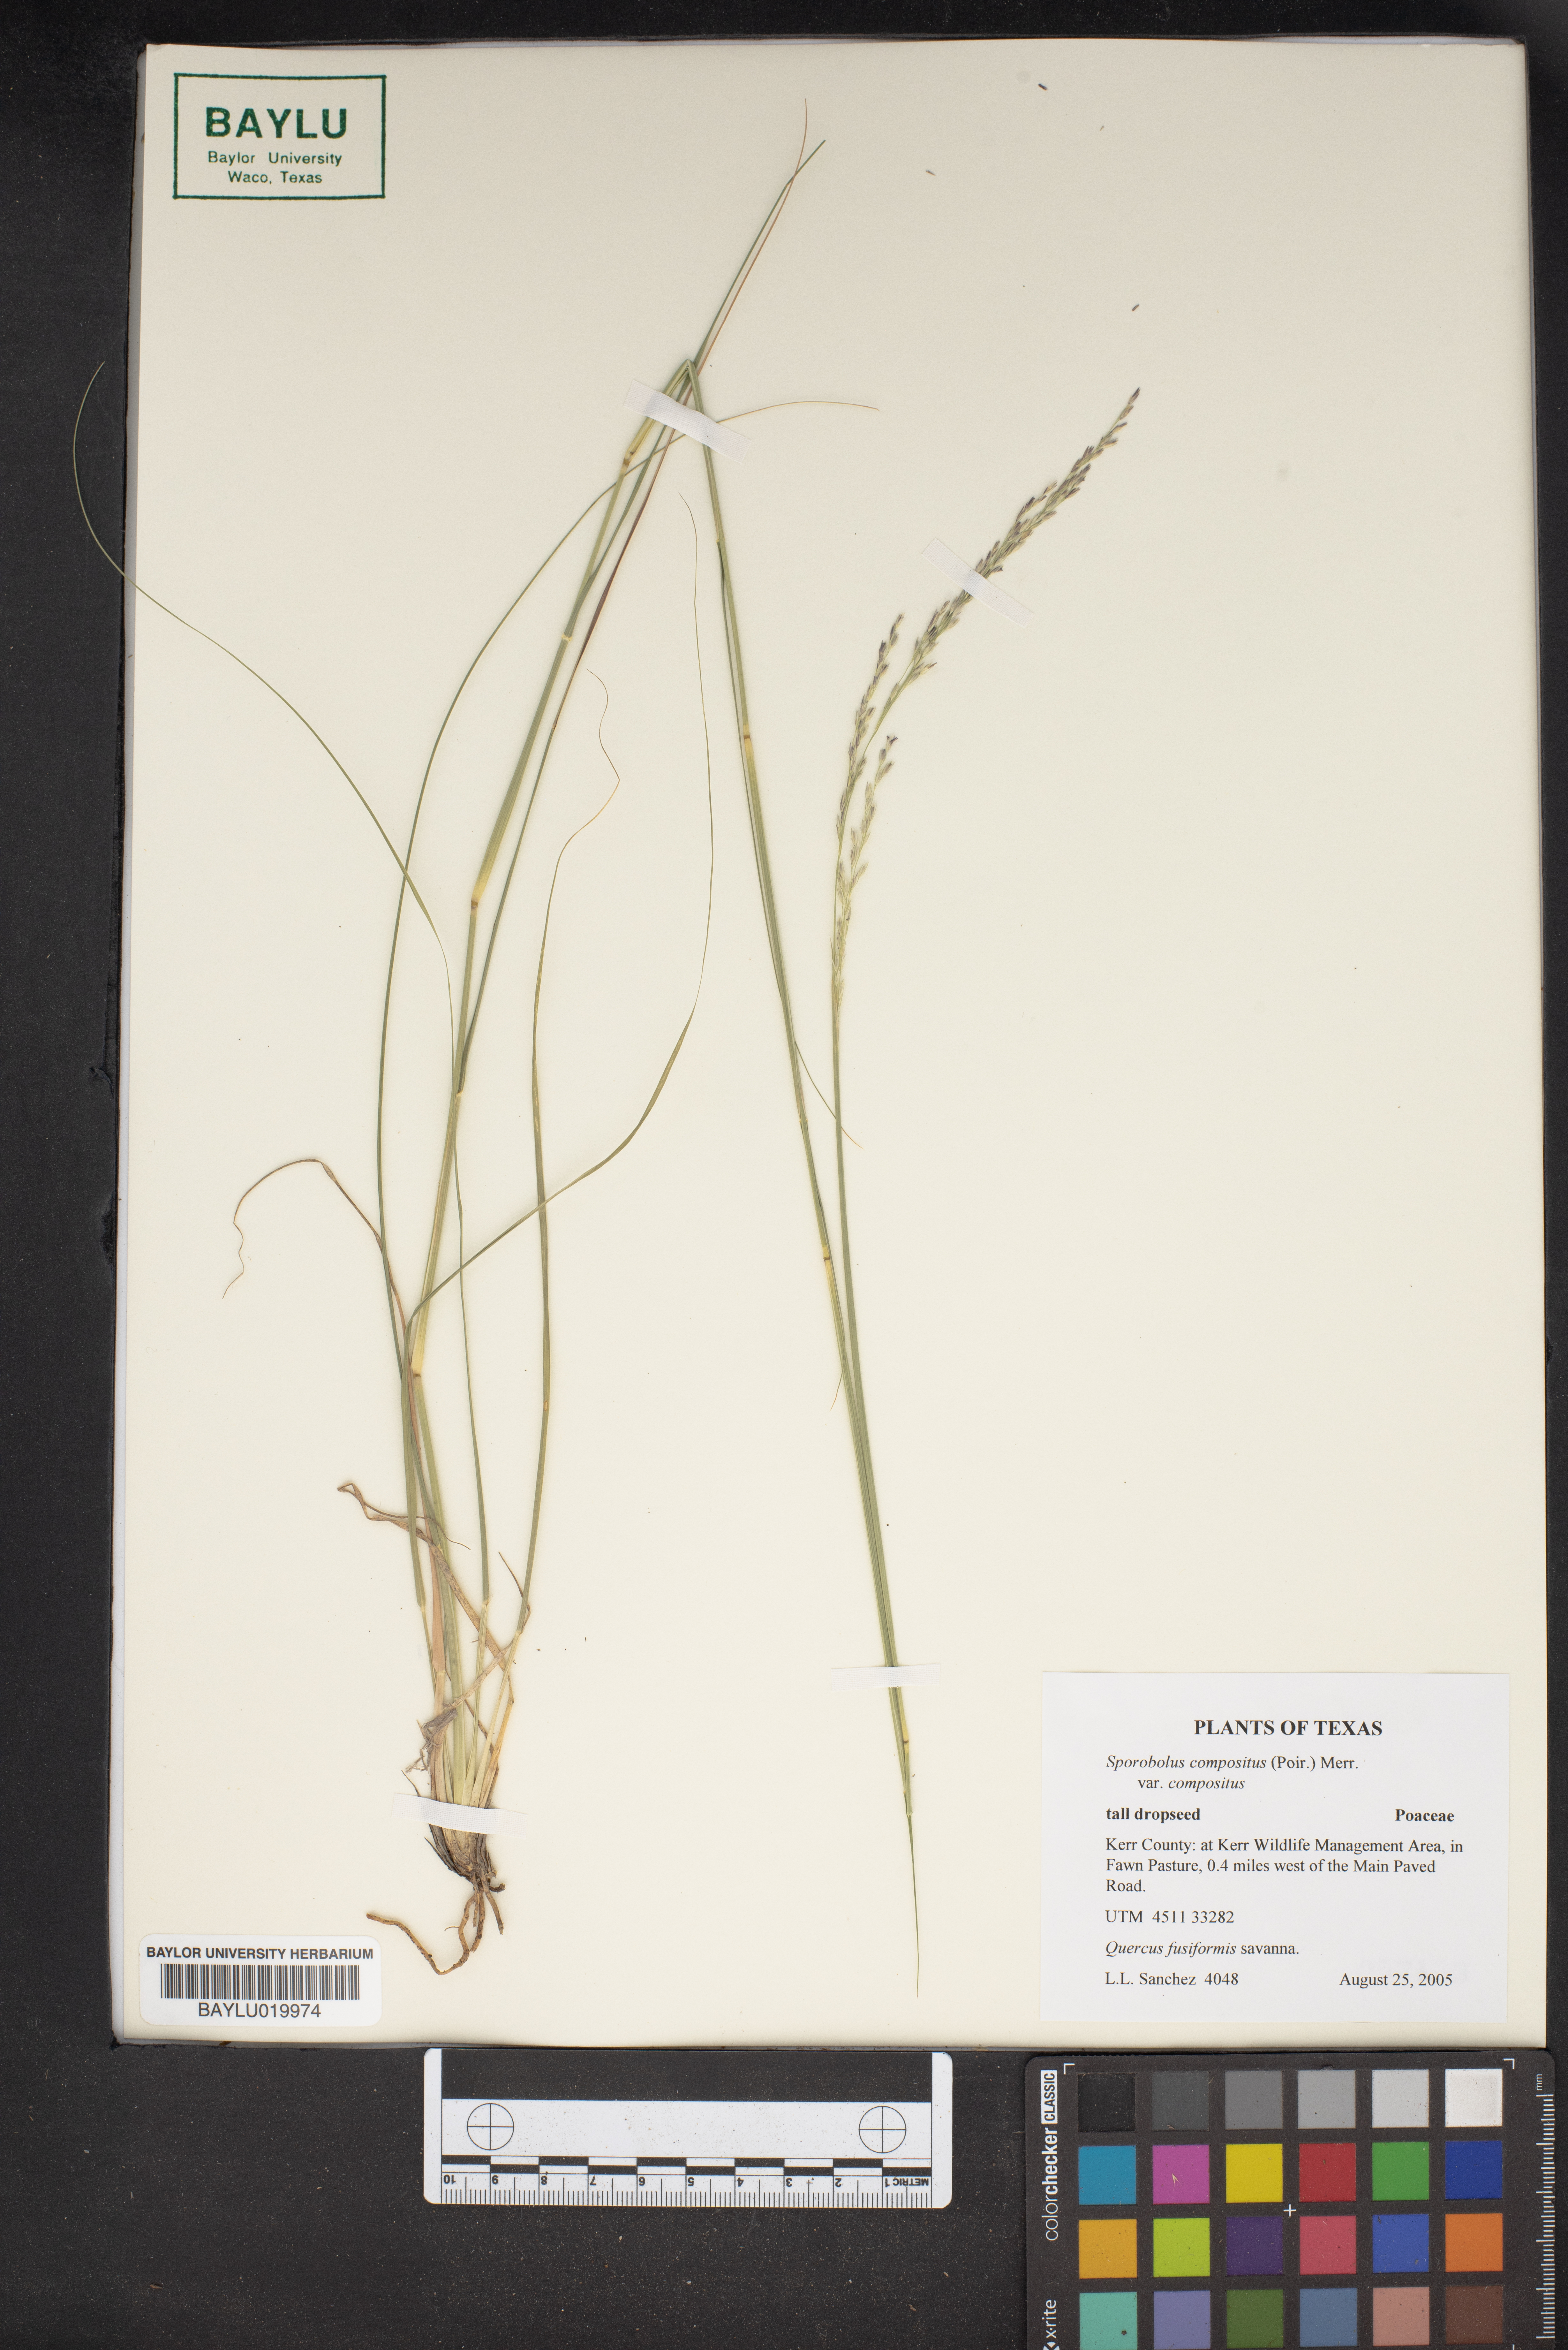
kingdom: Plantae
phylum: Tracheophyta
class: Liliopsida
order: Poales
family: Poaceae
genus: Sporobolus
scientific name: Sporobolus compositus
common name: Rough dropseed
